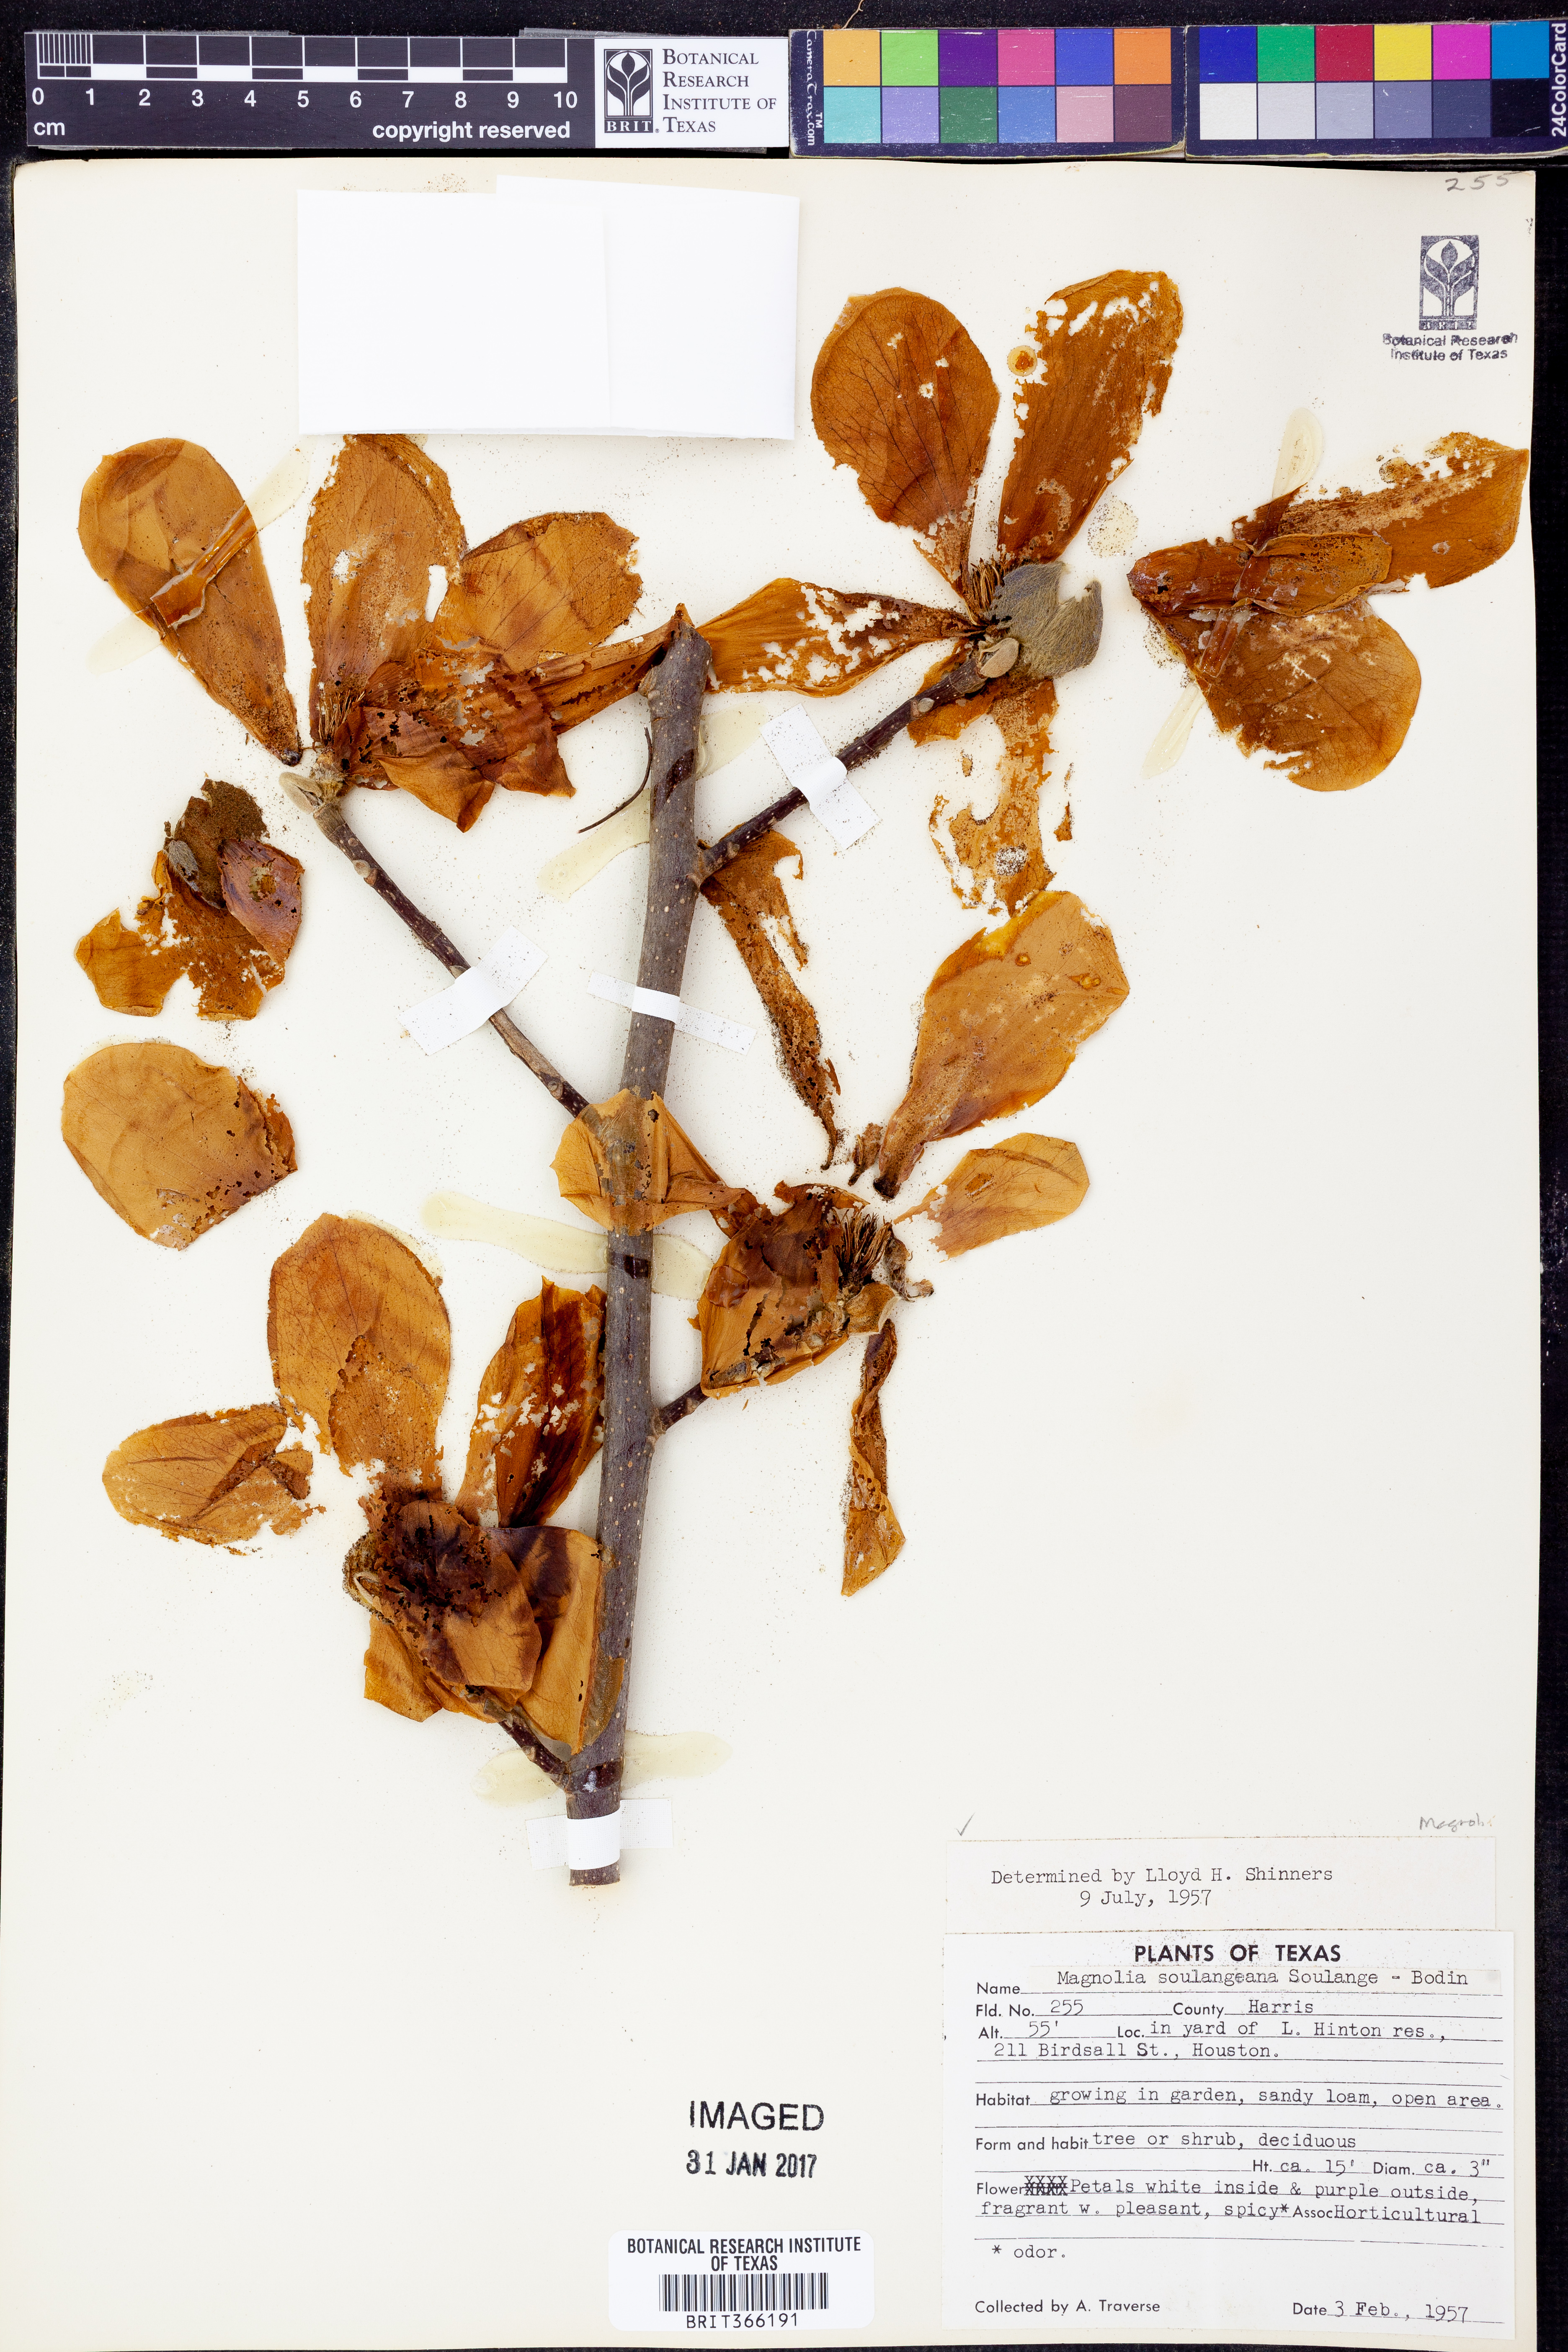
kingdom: Plantae
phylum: Tracheophyta
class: Magnoliopsida
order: Magnoliales
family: Magnoliaceae
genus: Magnolia
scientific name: Magnolia soulangeana
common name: Chinese magnolia
